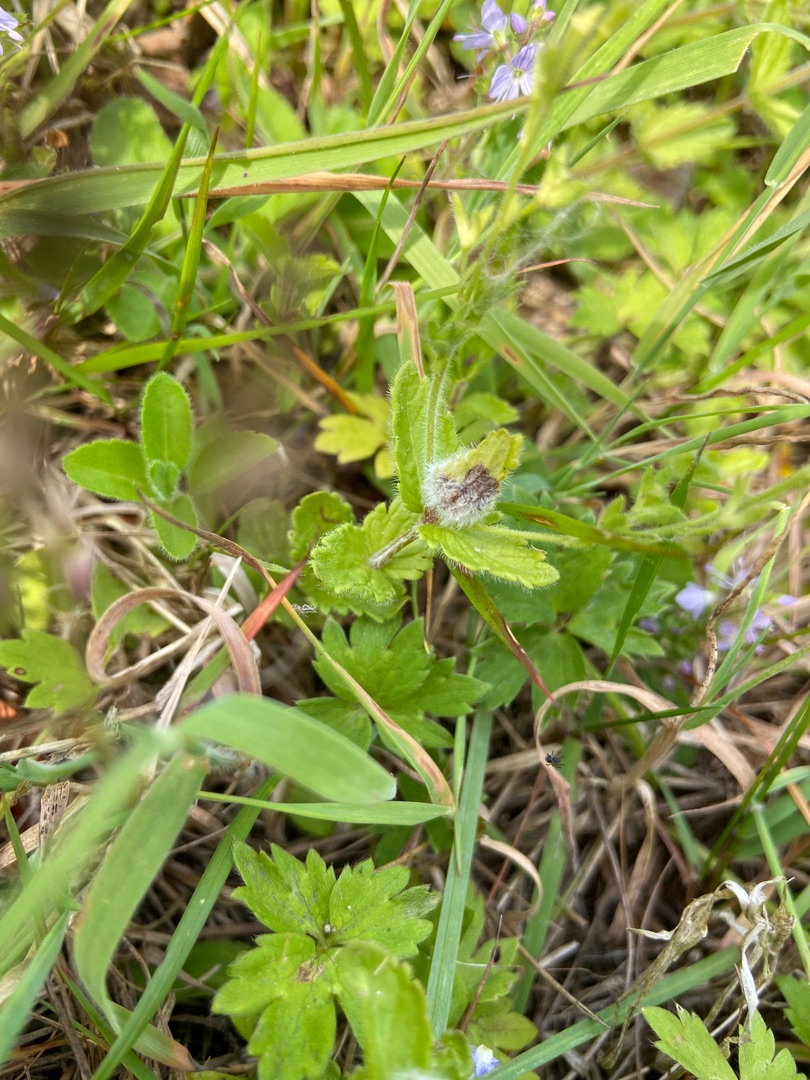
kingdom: Animalia
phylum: Arthropoda
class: Insecta
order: Diptera
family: Cecidomyiidae
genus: Jaapiella
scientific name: Jaapiella veronicae
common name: Ærenprisgalmyg
